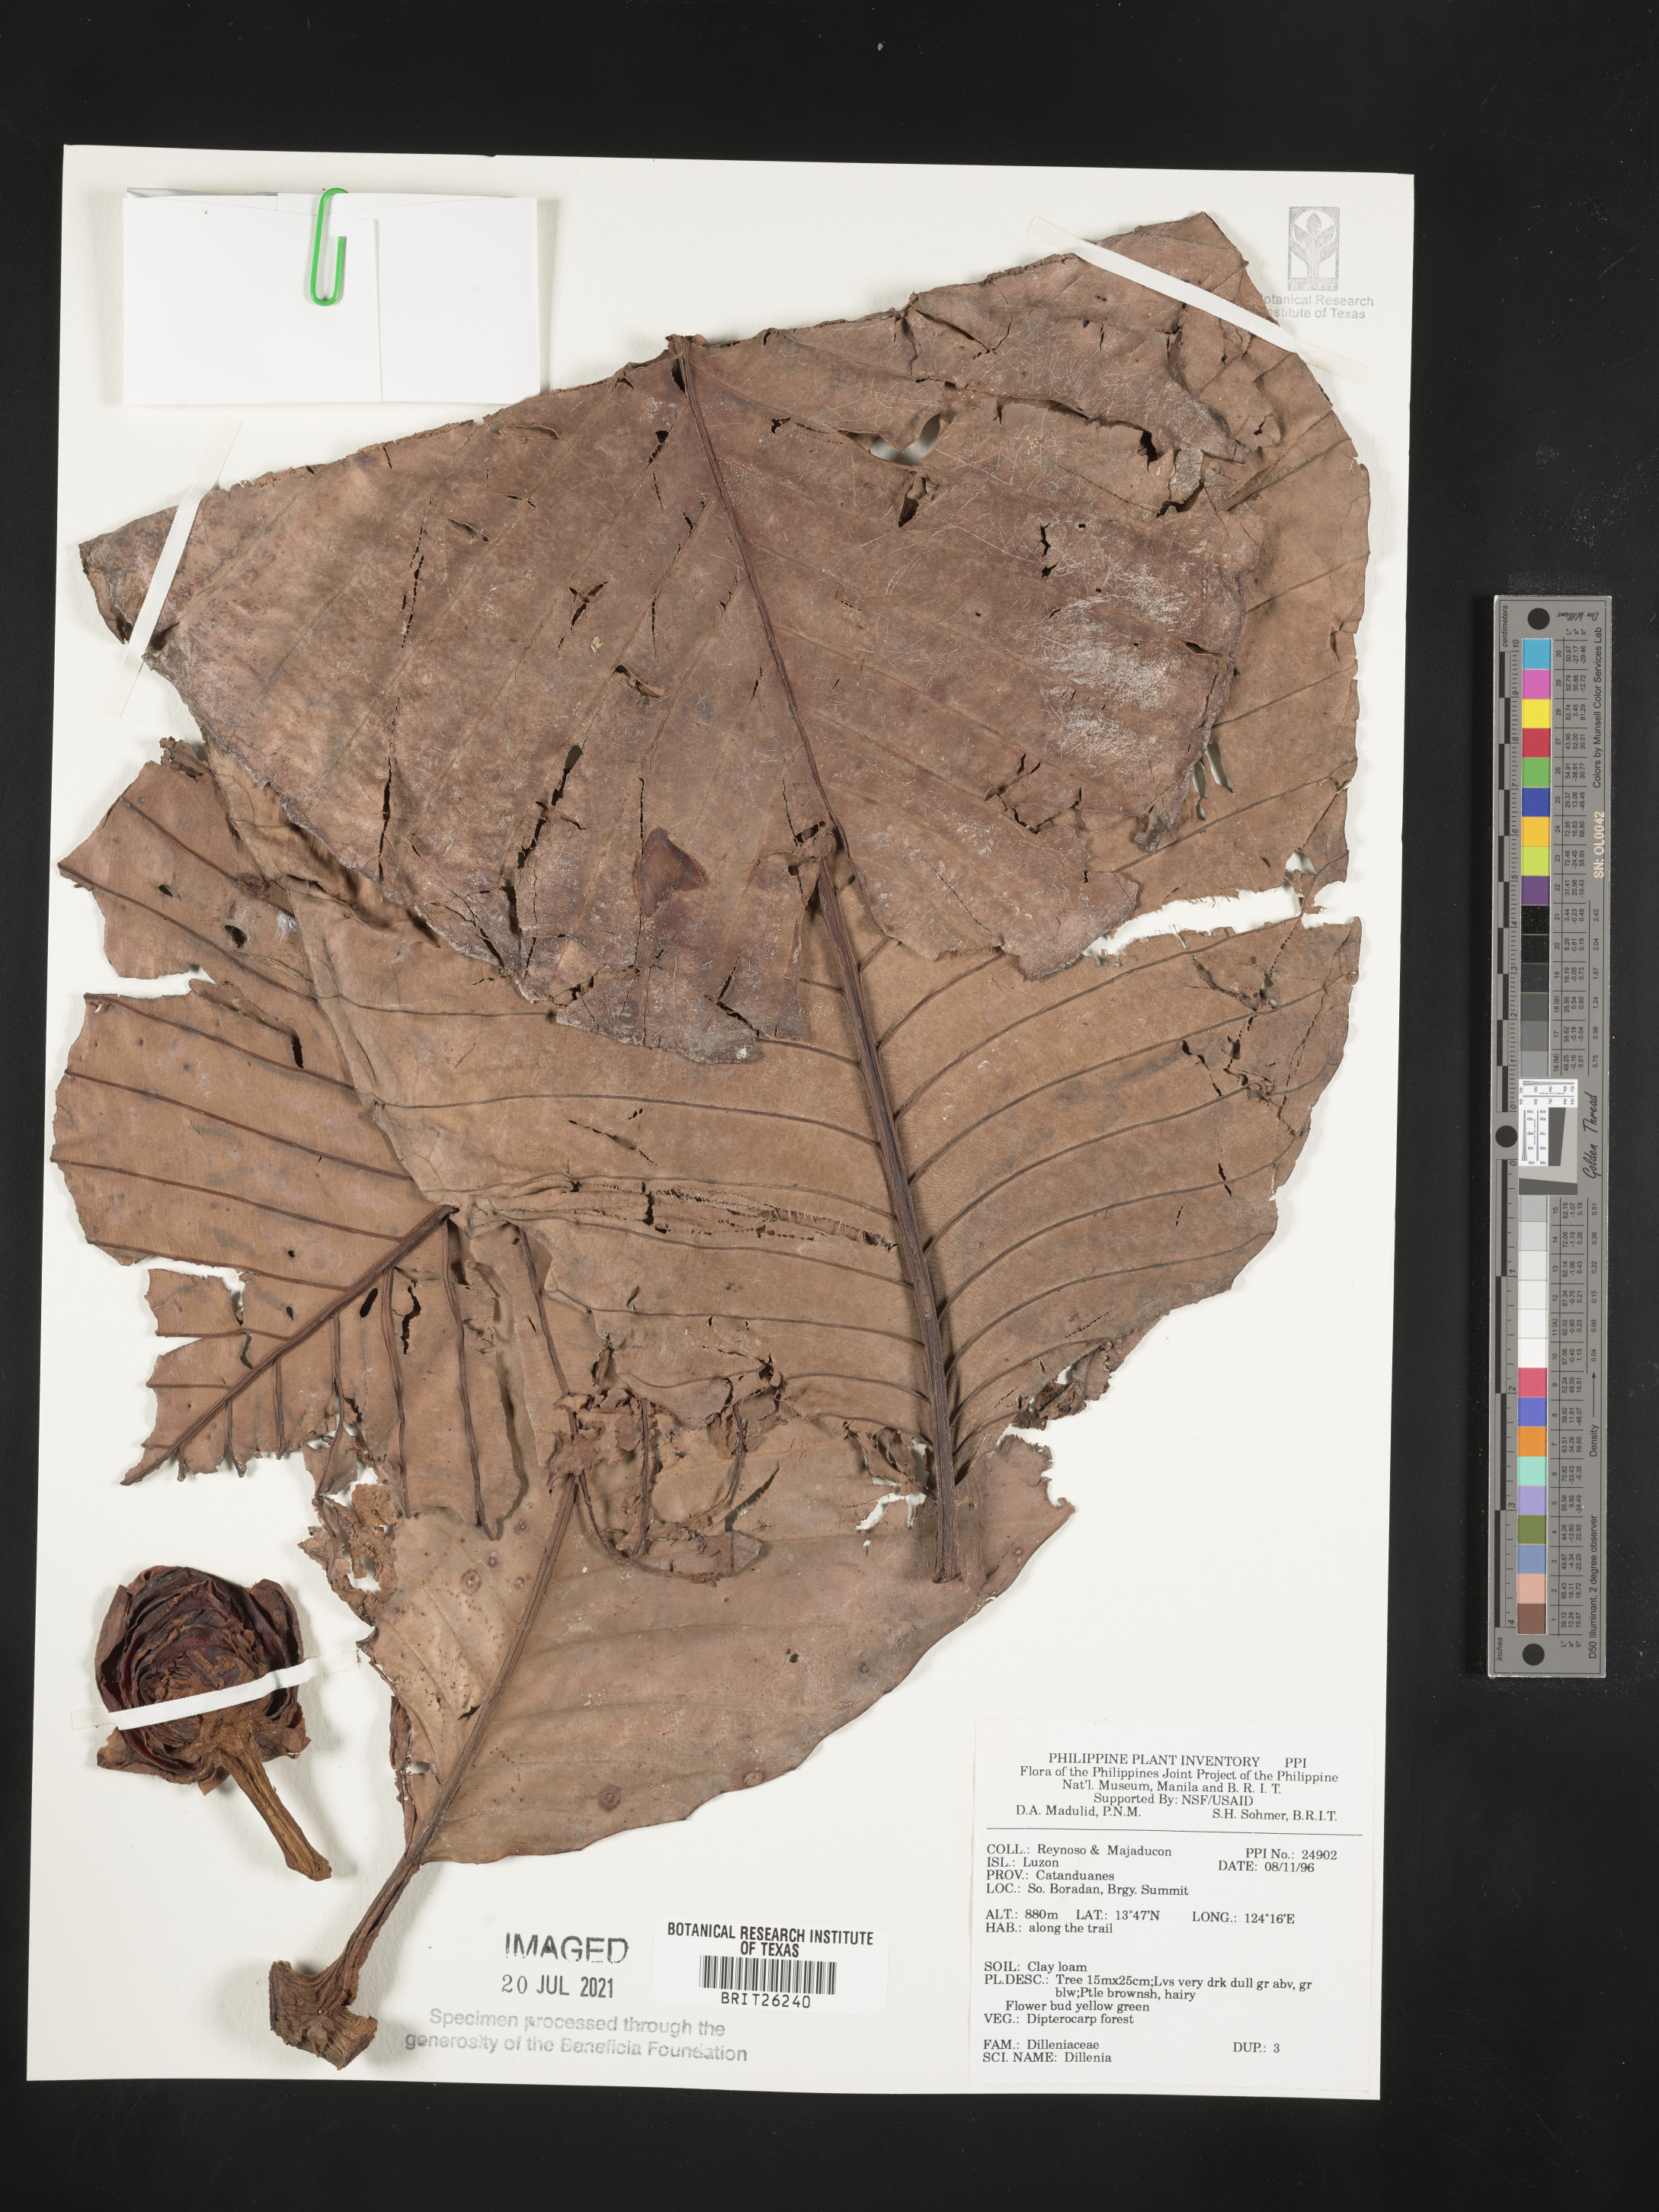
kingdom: Plantae
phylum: Tracheophyta
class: Magnoliopsida
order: Dilleniales
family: Dilleniaceae
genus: Dillenia
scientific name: Dillenia
